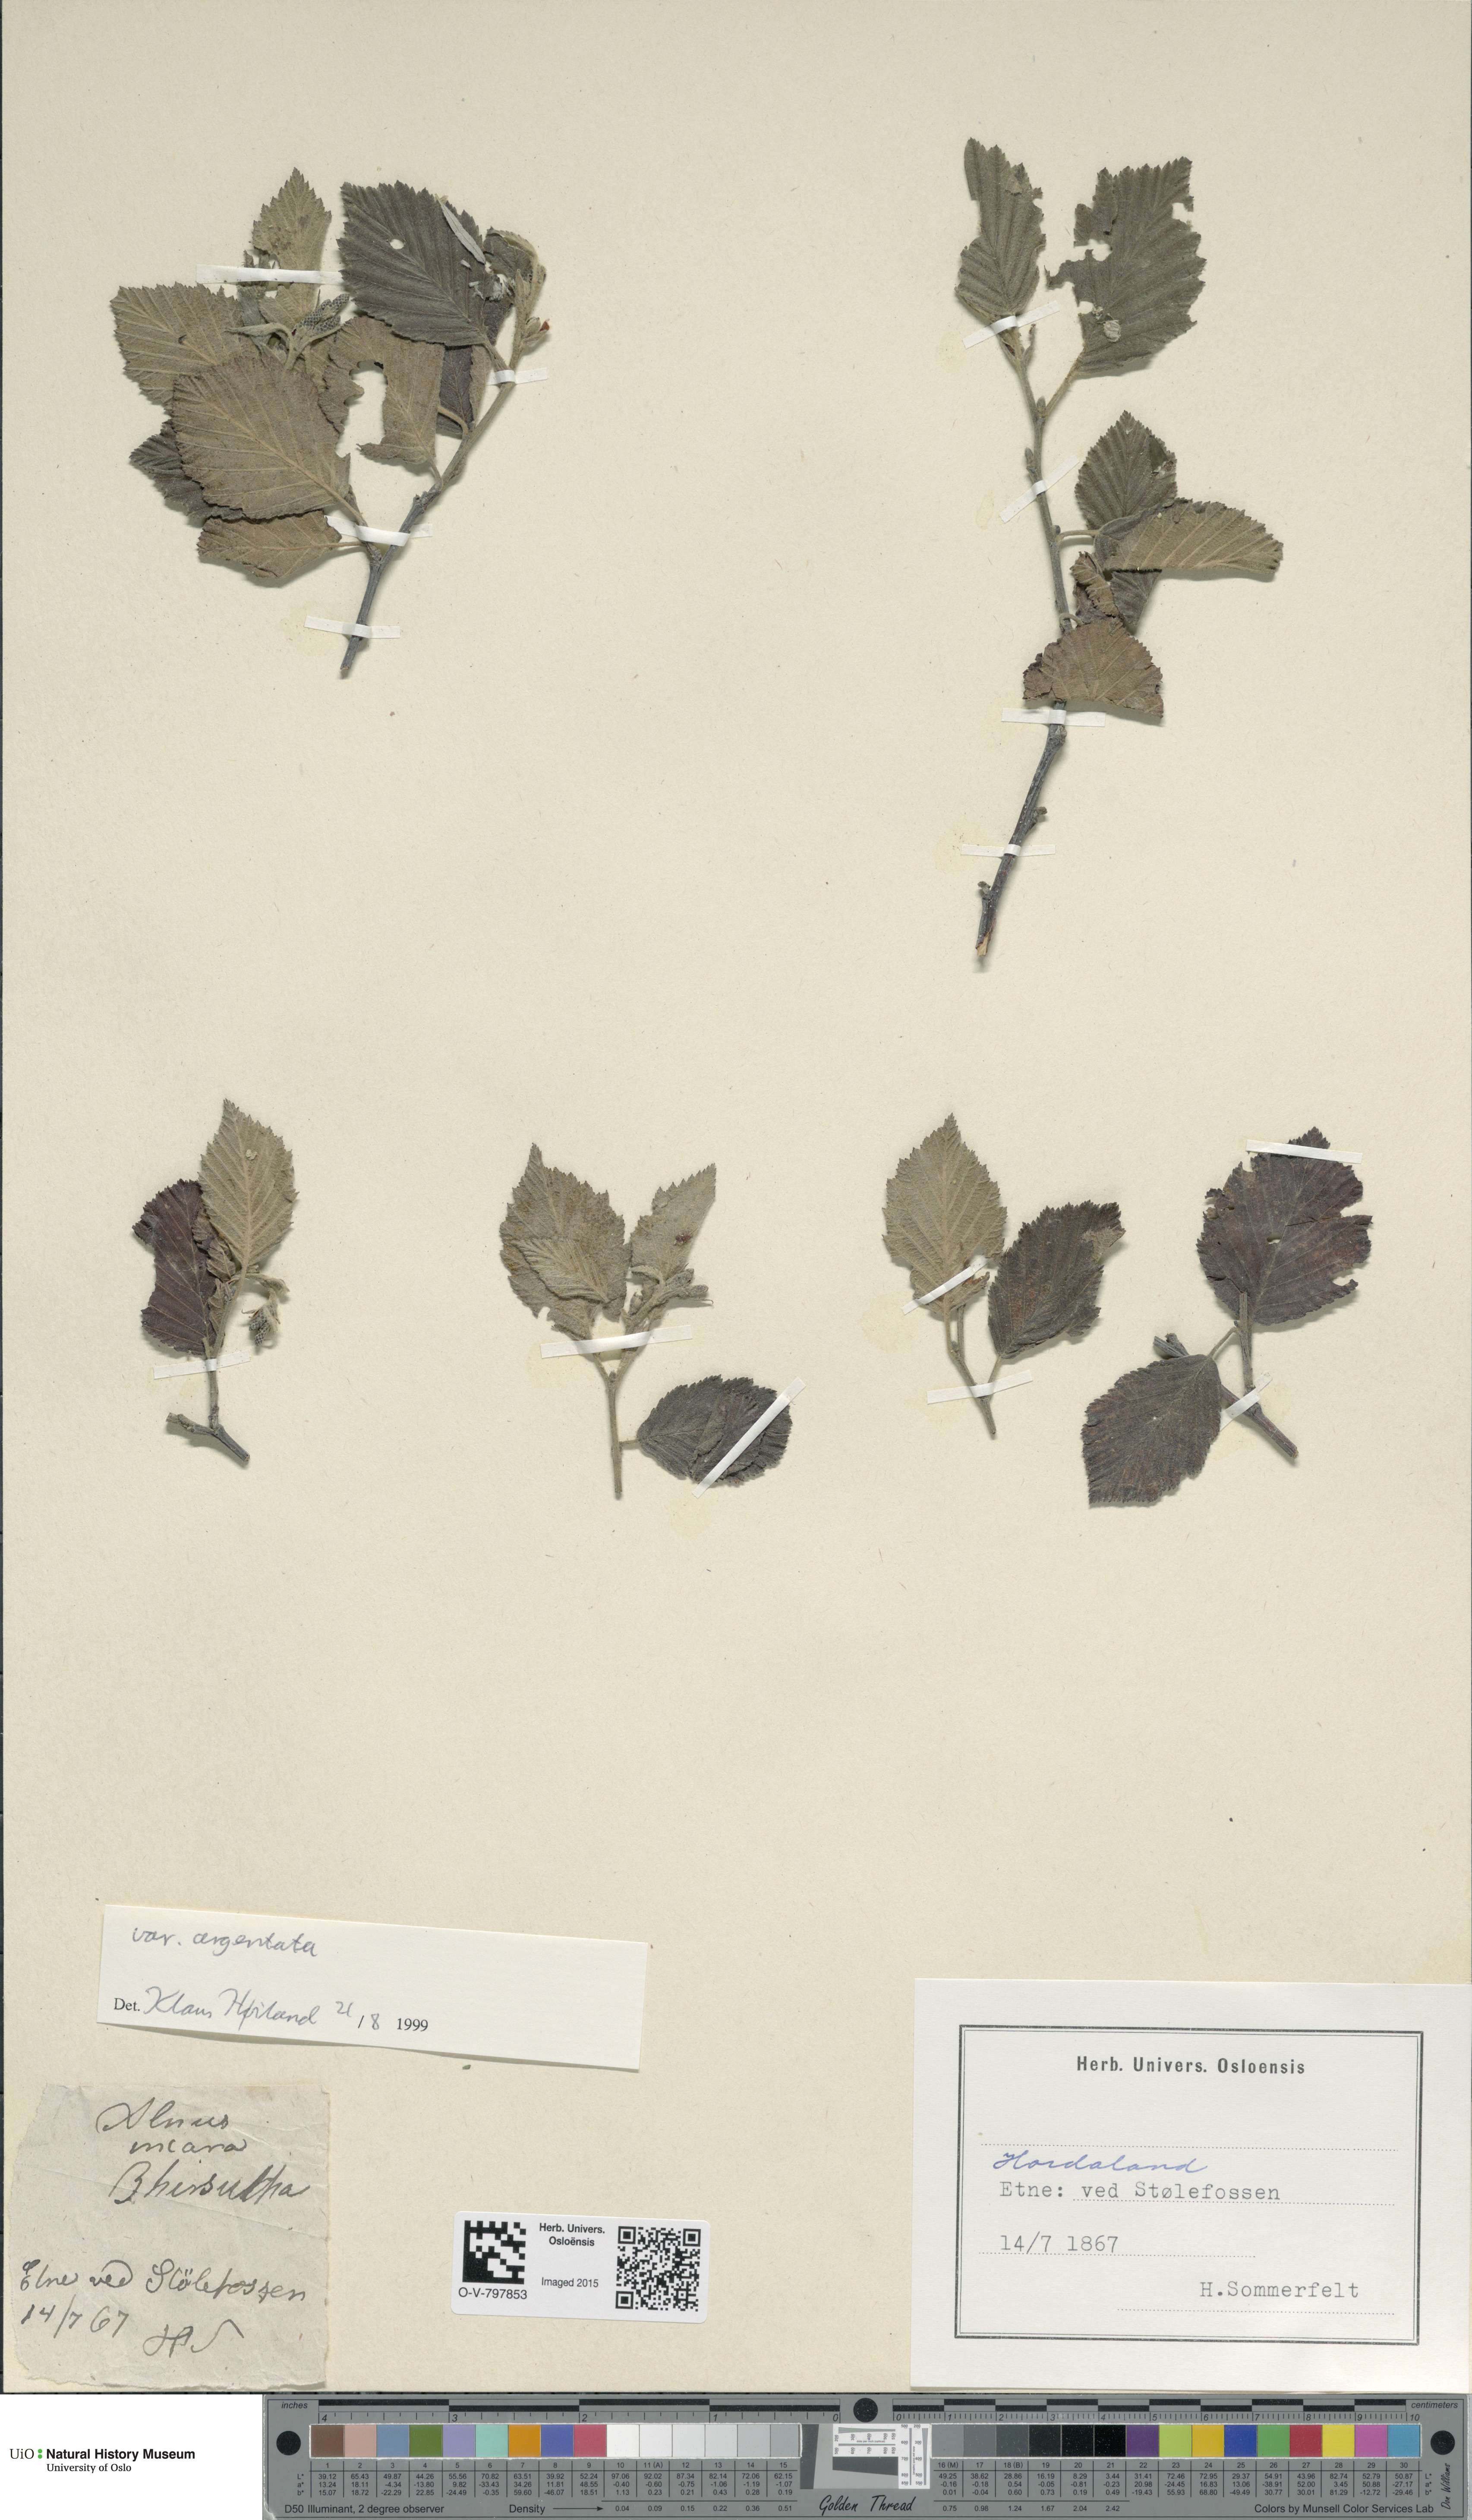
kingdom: Plantae
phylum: Tracheophyta
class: Magnoliopsida
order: Fagales
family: Betulaceae
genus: Alnus
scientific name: Alnus incana
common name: Grey alder
